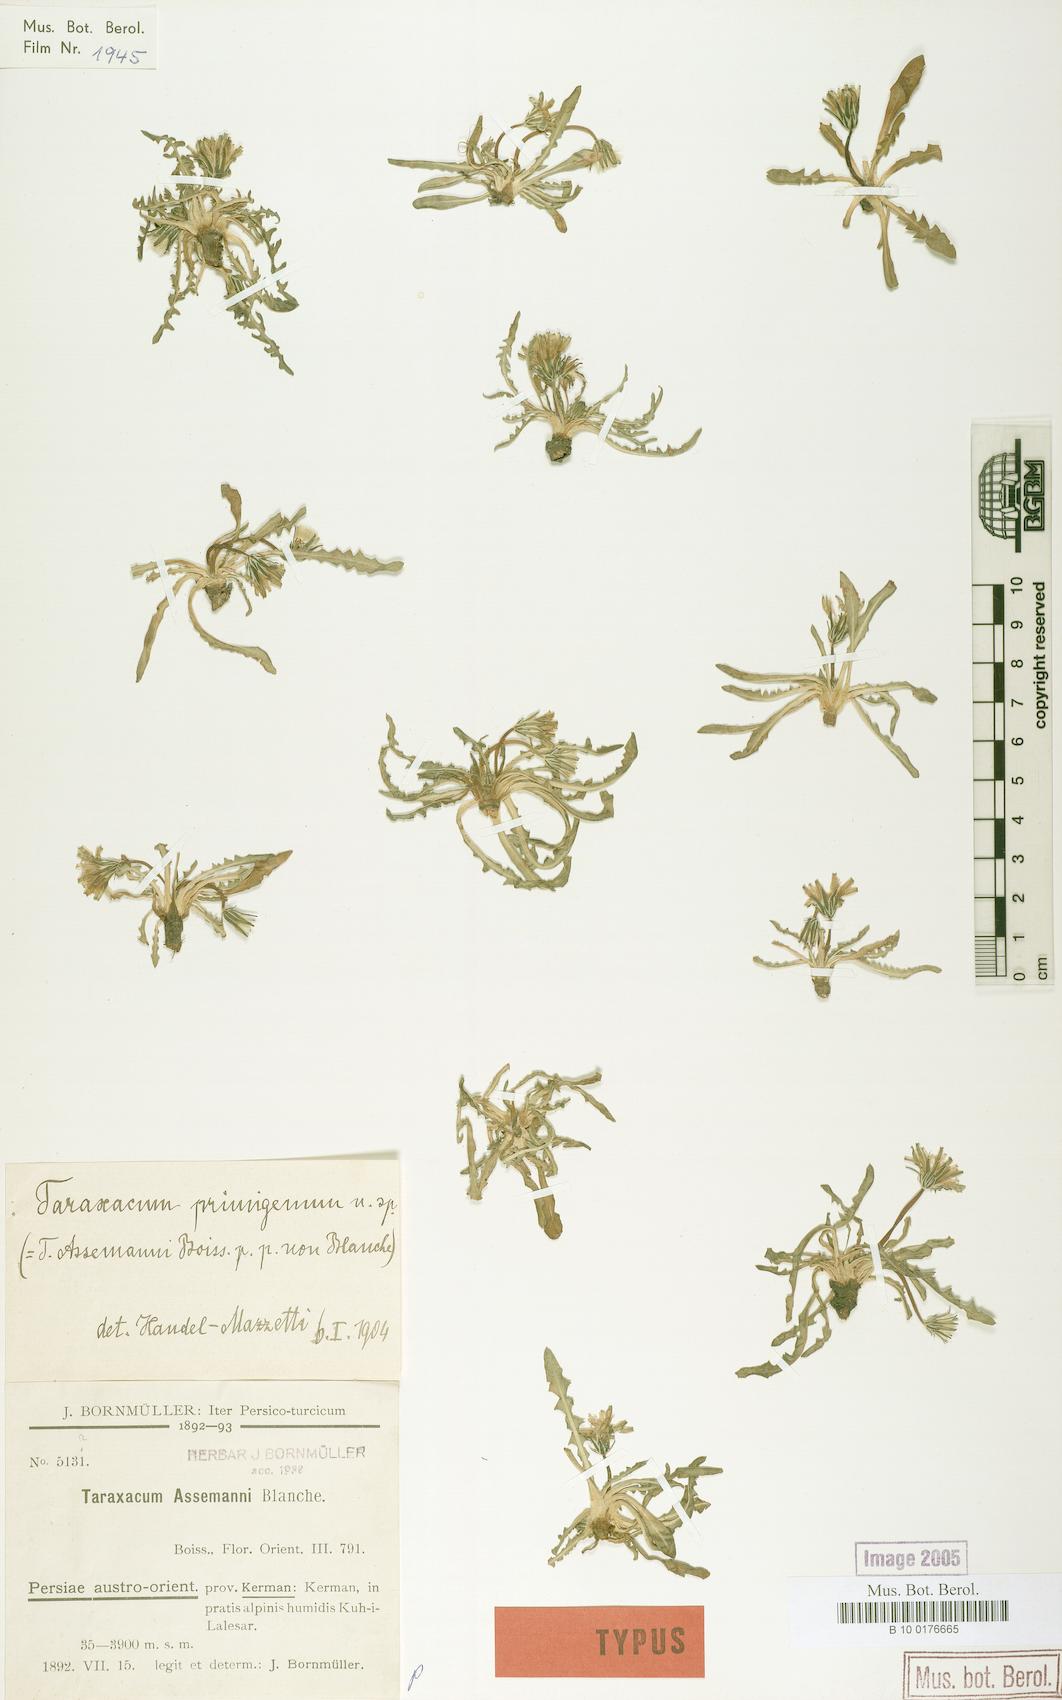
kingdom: Plantae
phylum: Tracheophyta
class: Magnoliopsida
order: Asterales
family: Asteraceae
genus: Taraxacum
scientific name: Taraxacum assemanii
